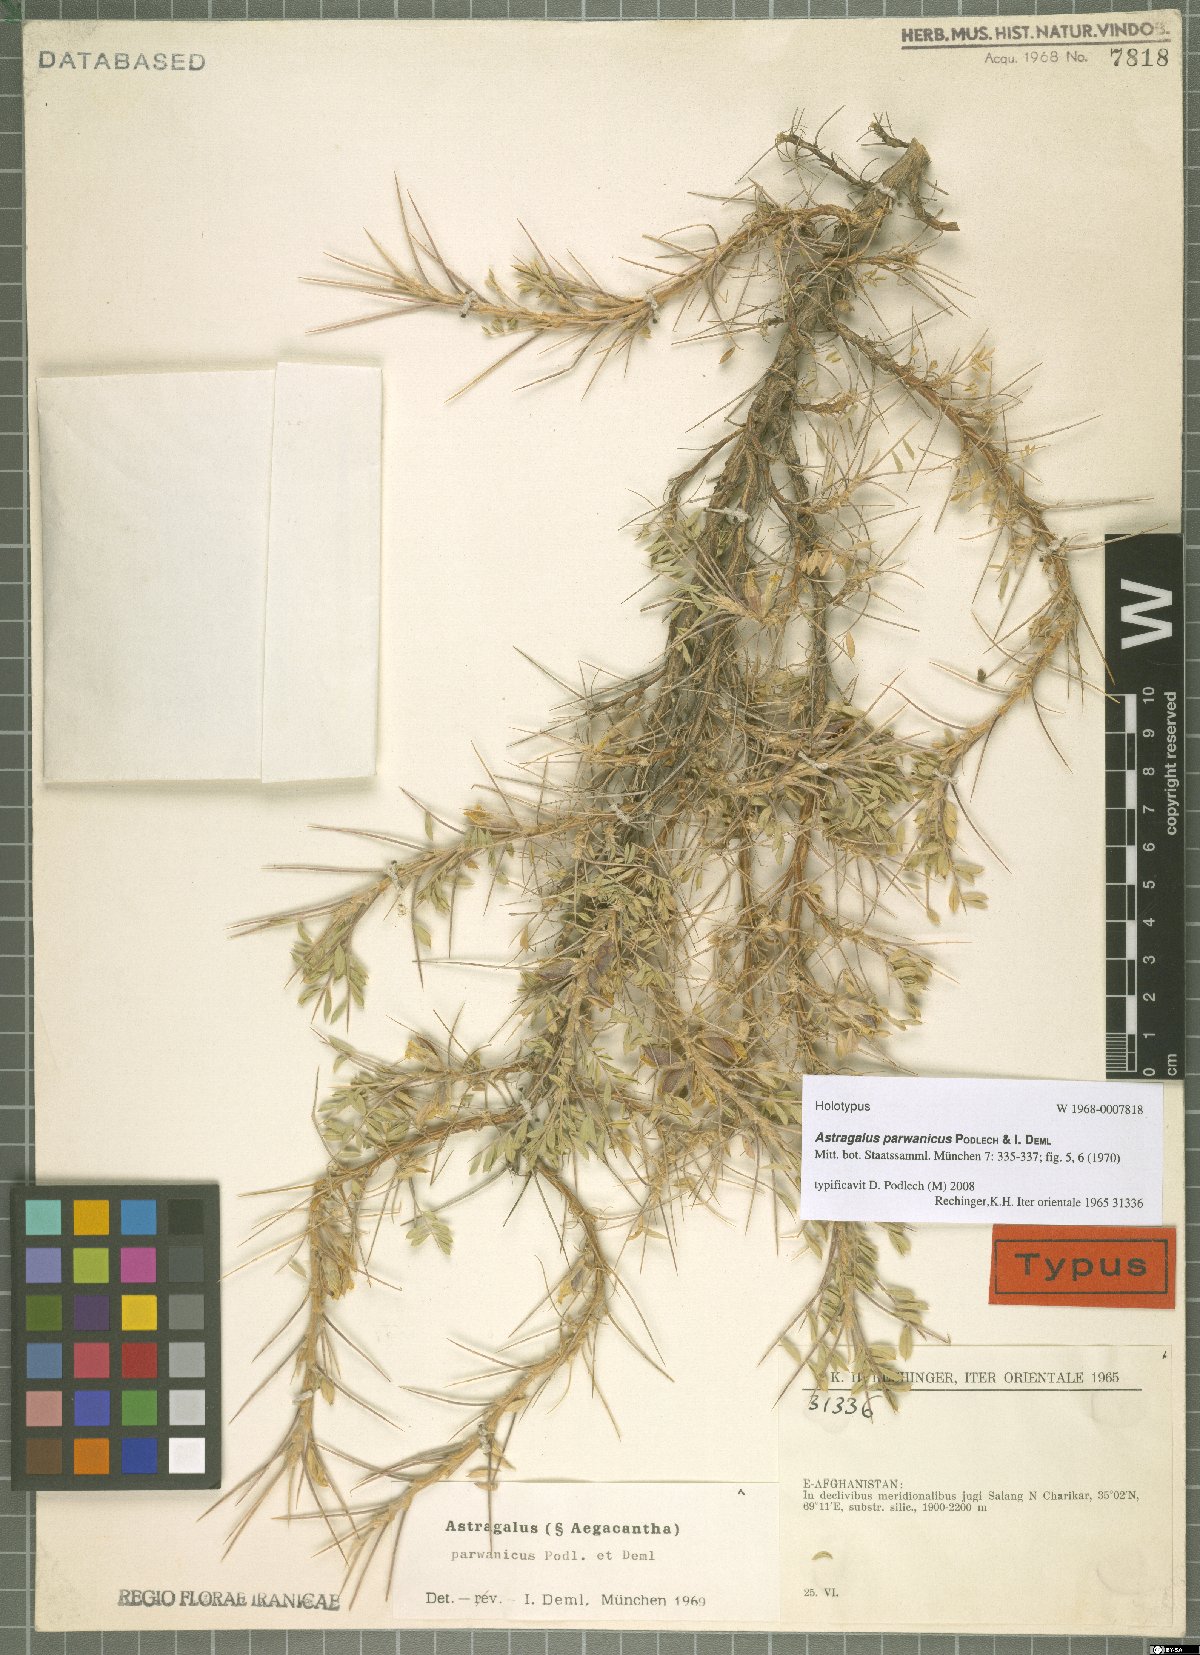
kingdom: Plantae
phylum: Tracheophyta
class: Magnoliopsida
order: Fabales
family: Fabaceae
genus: Astragalus
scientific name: Astragalus parwanicus
